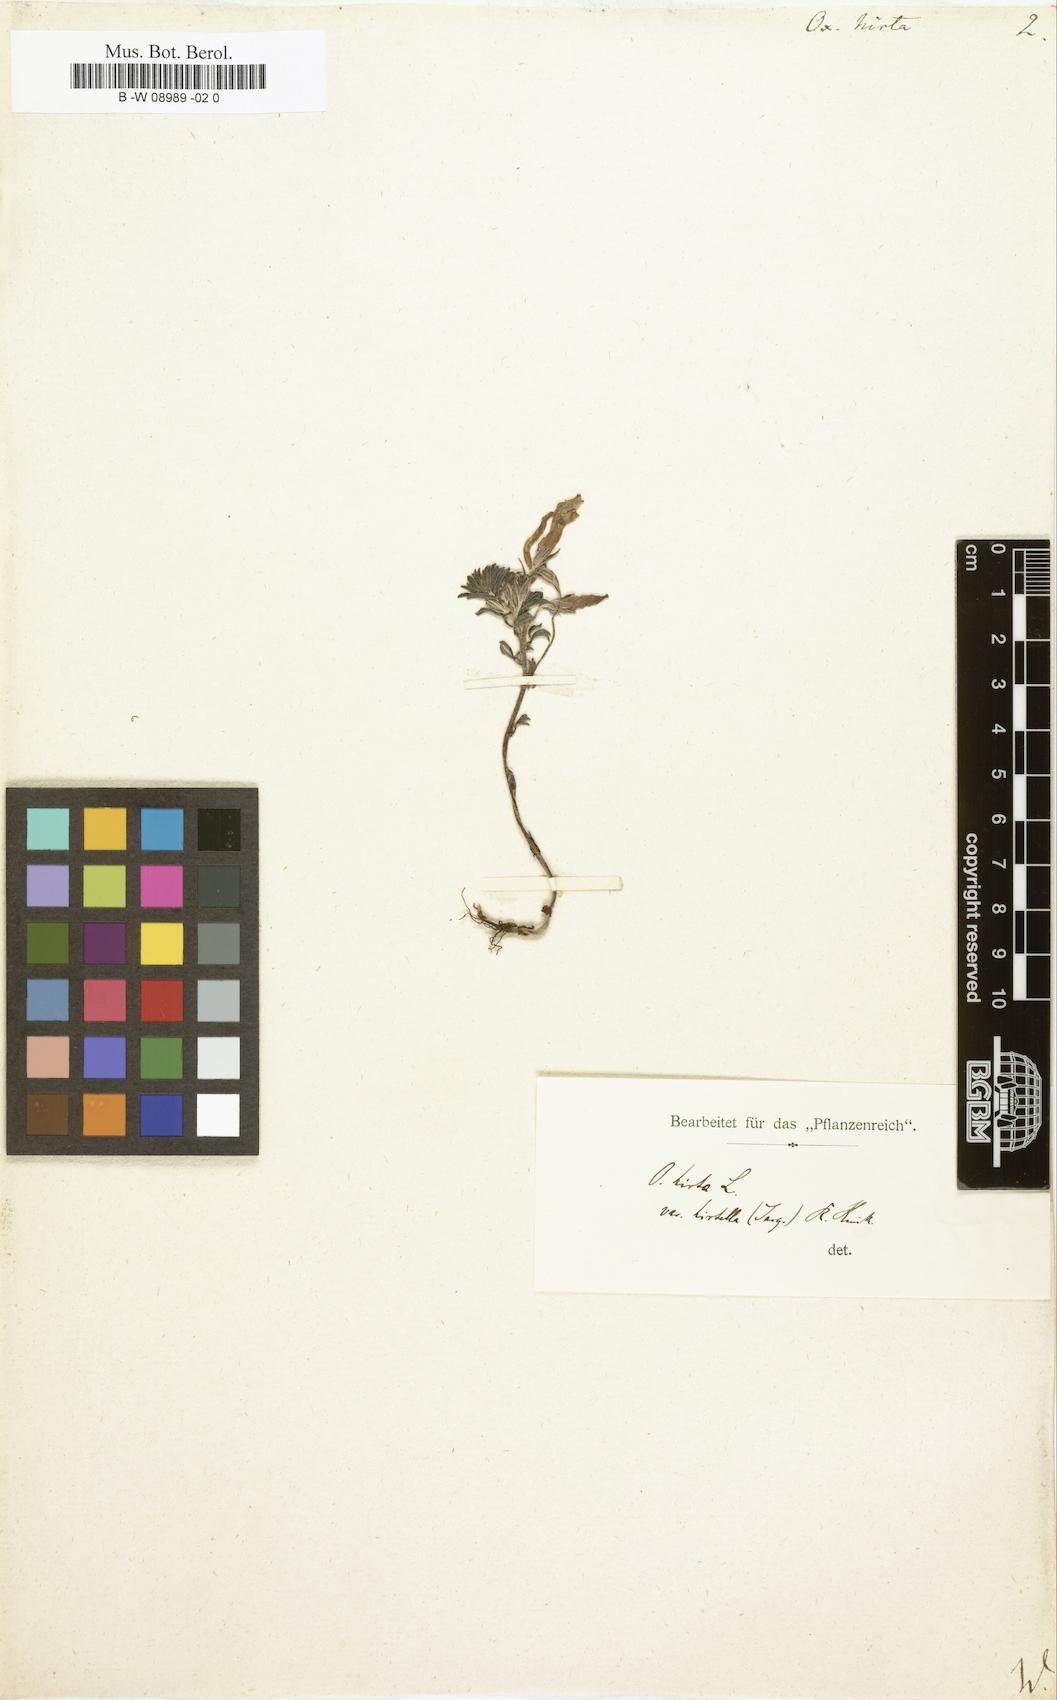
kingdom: Plantae
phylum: Tracheophyta
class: Magnoliopsida
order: Oxalidales
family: Oxalidaceae
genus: Oxalis
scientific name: Oxalis hirta
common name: Tropical woodsorrel
